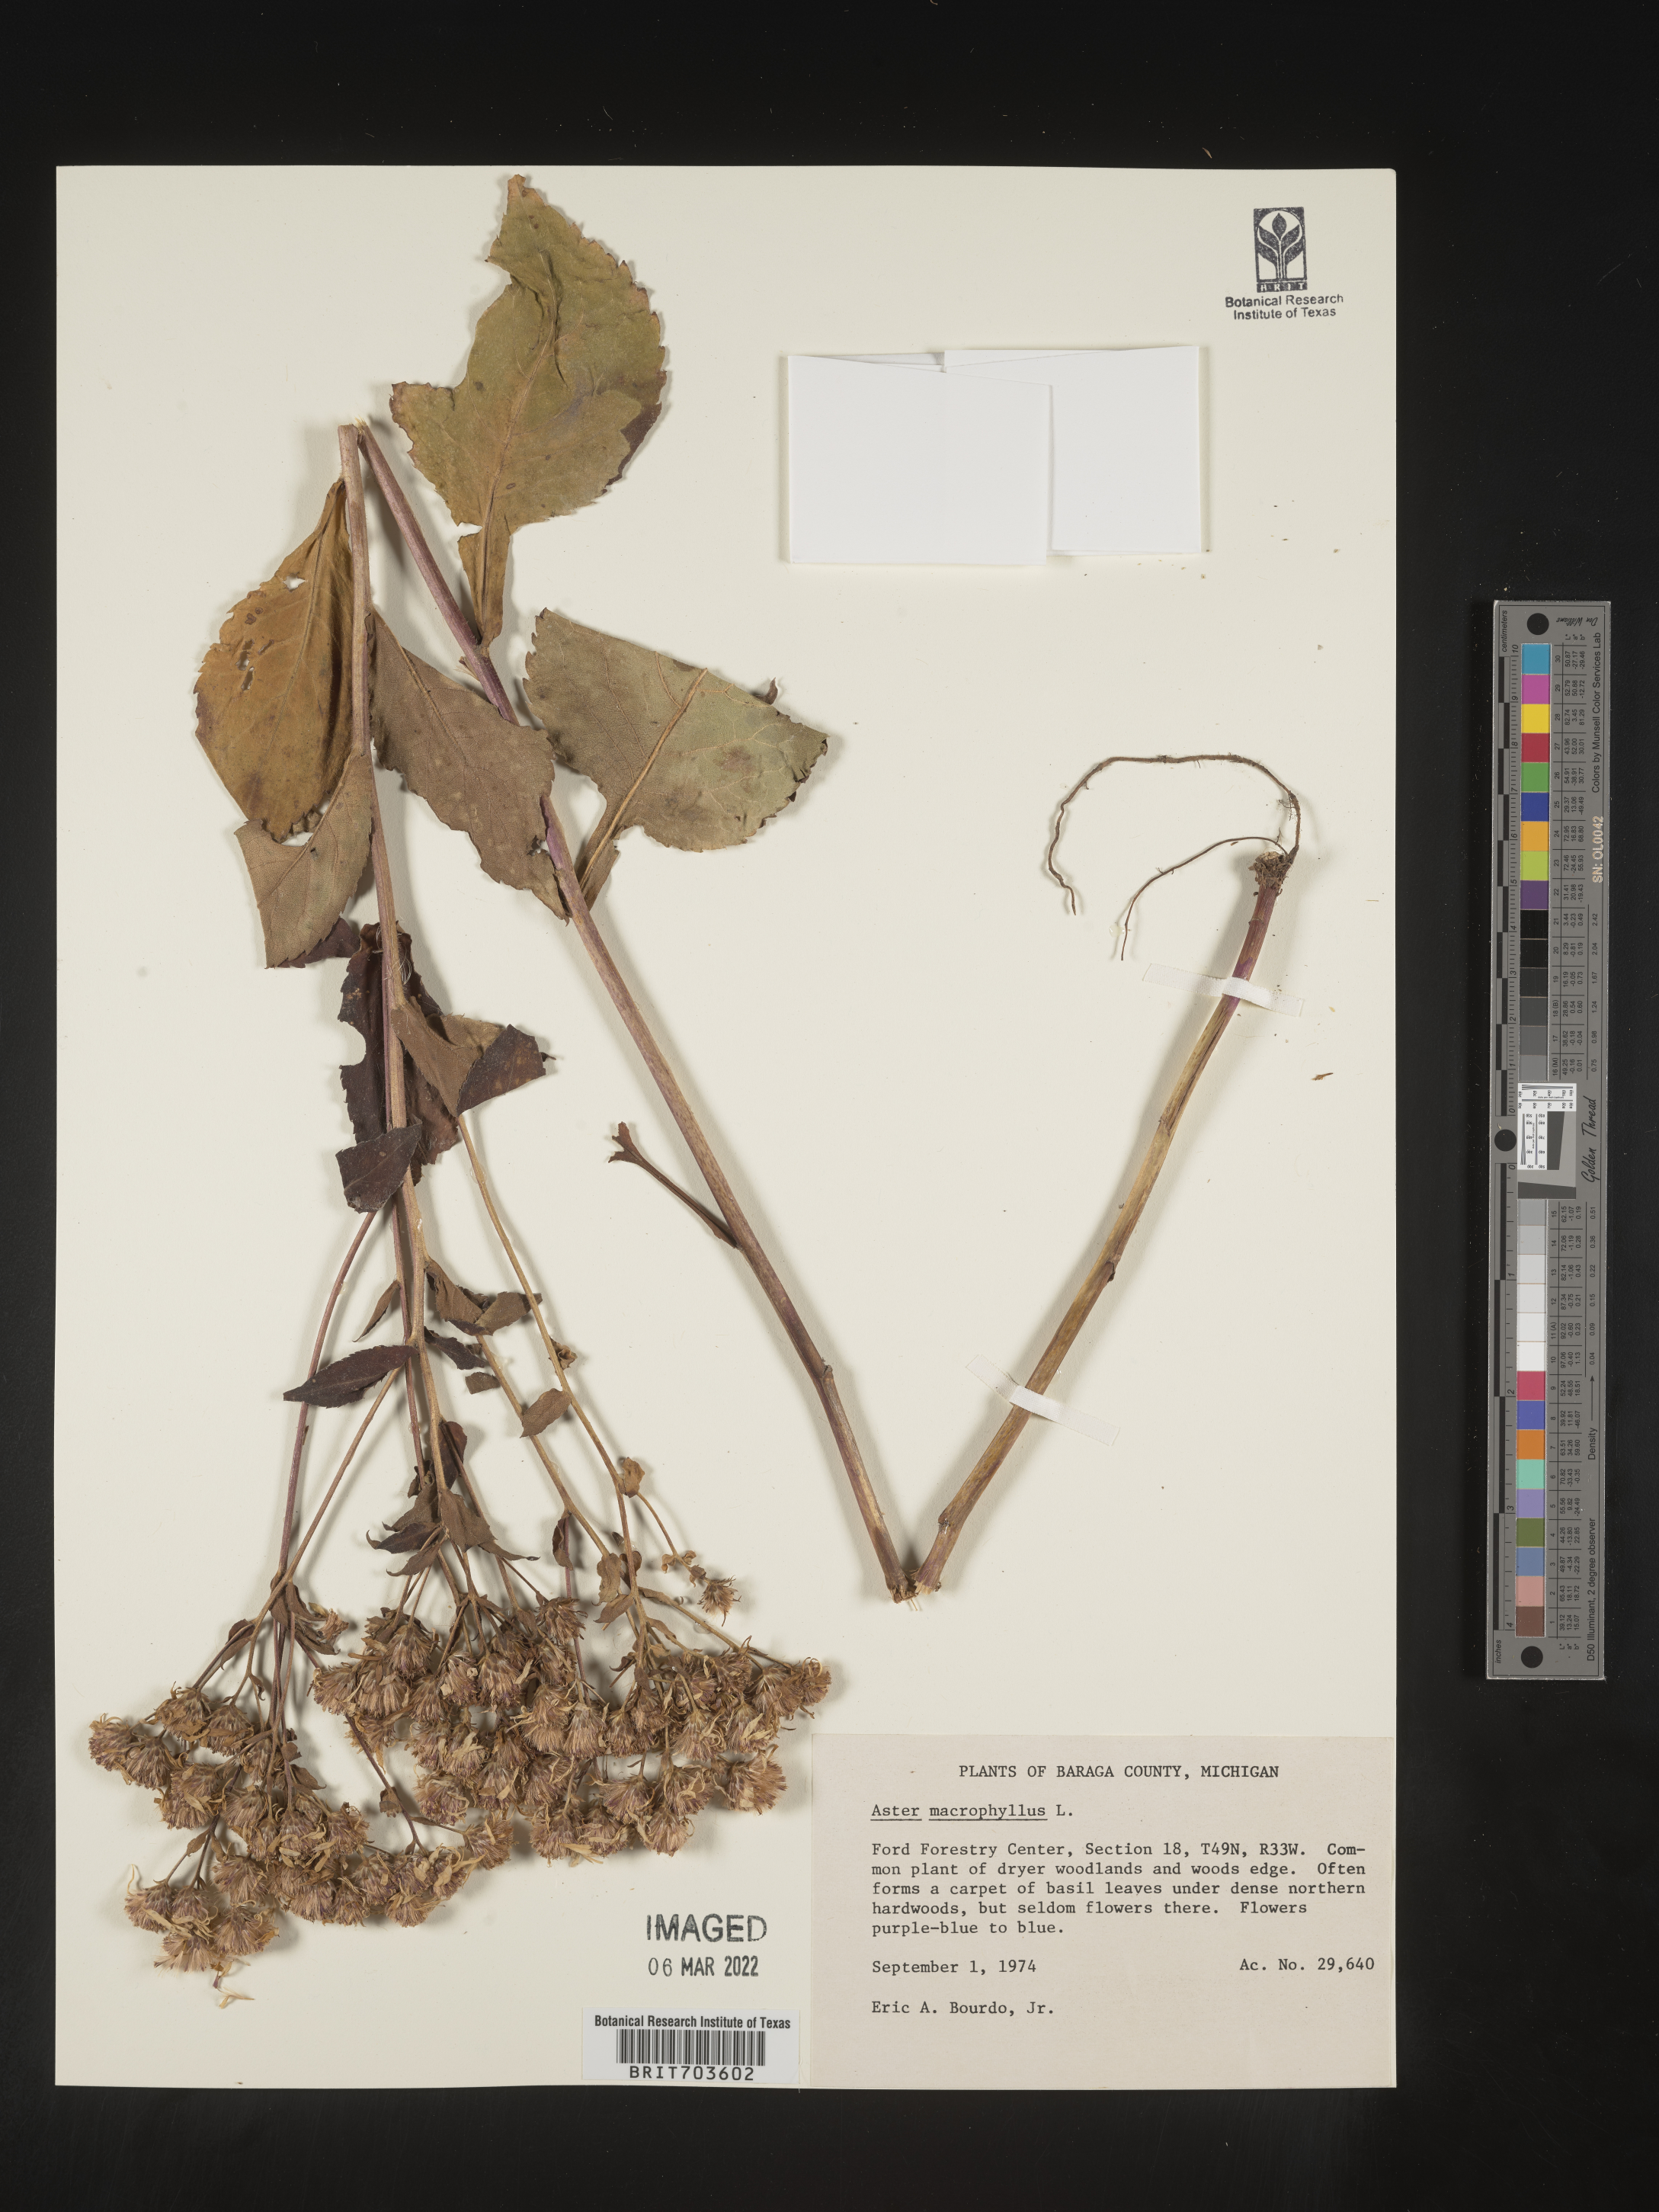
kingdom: Plantae
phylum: Tracheophyta
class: Magnoliopsida
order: Asterales
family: Asteraceae
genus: Eurybia
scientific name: Eurybia macrophylla
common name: Big-leaved aster
